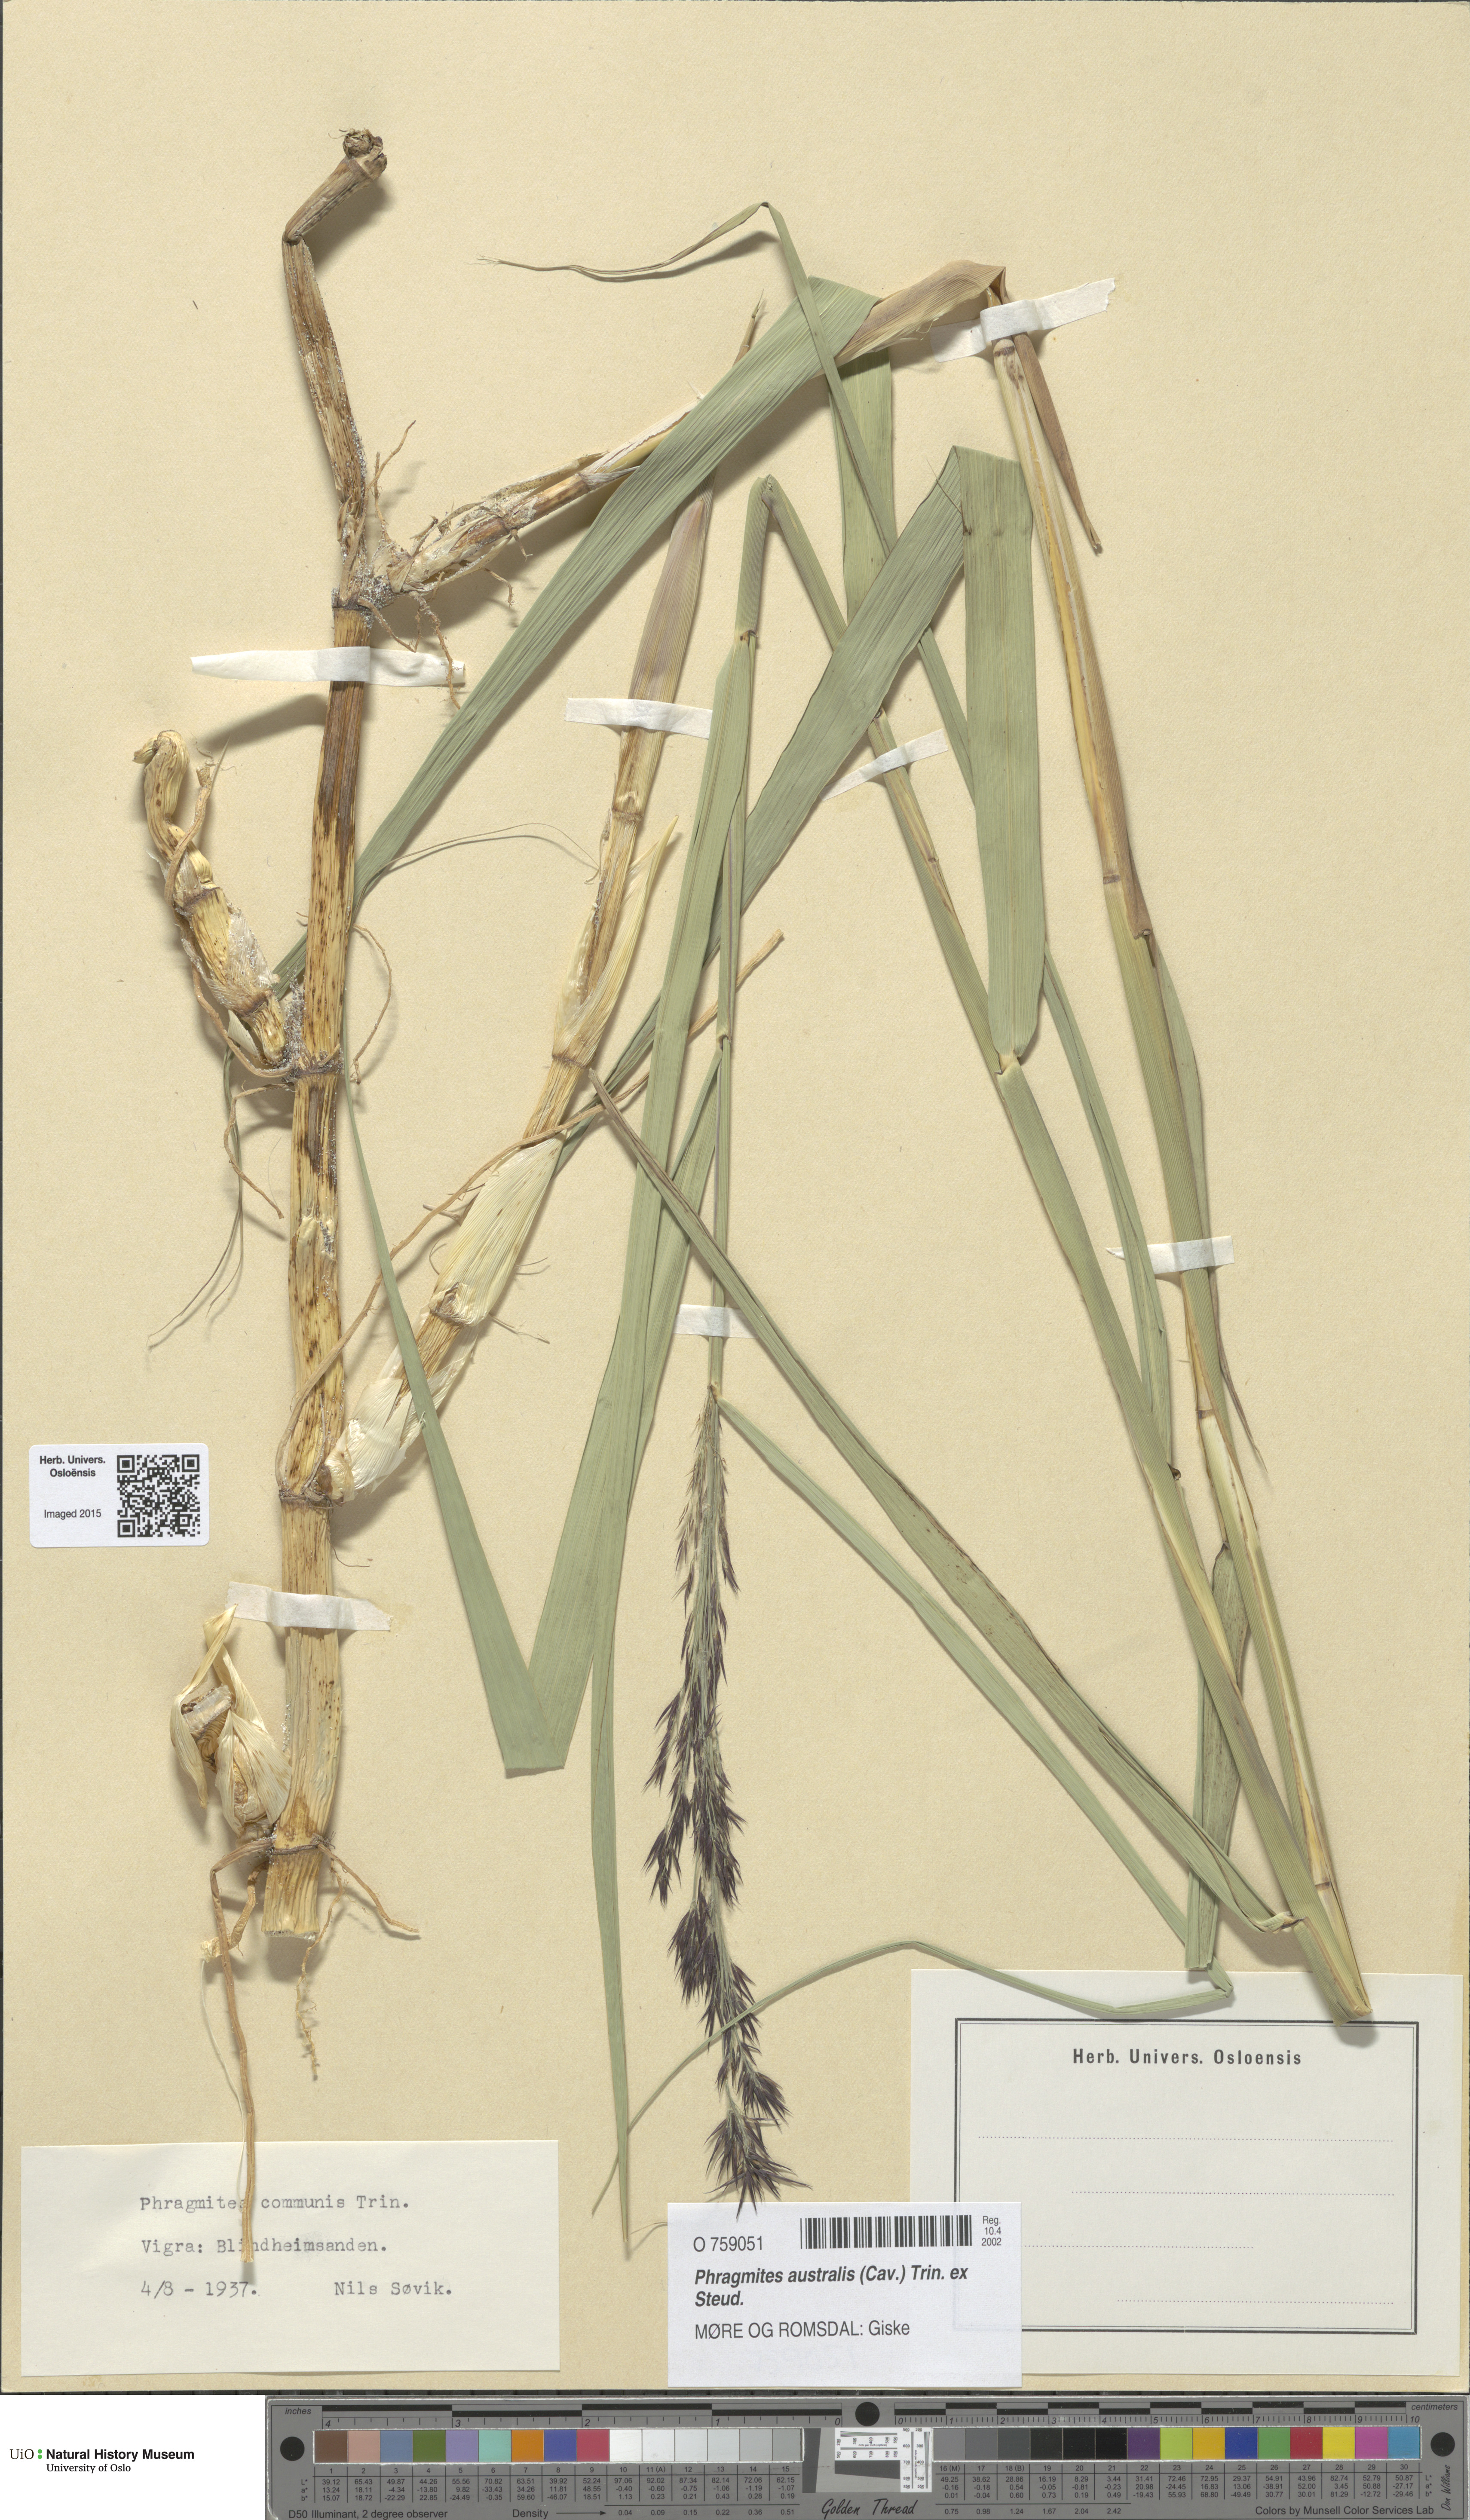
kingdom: Plantae
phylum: Tracheophyta
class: Liliopsida
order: Poales
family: Poaceae
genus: Phragmites
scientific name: Phragmites australis
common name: Common reed
